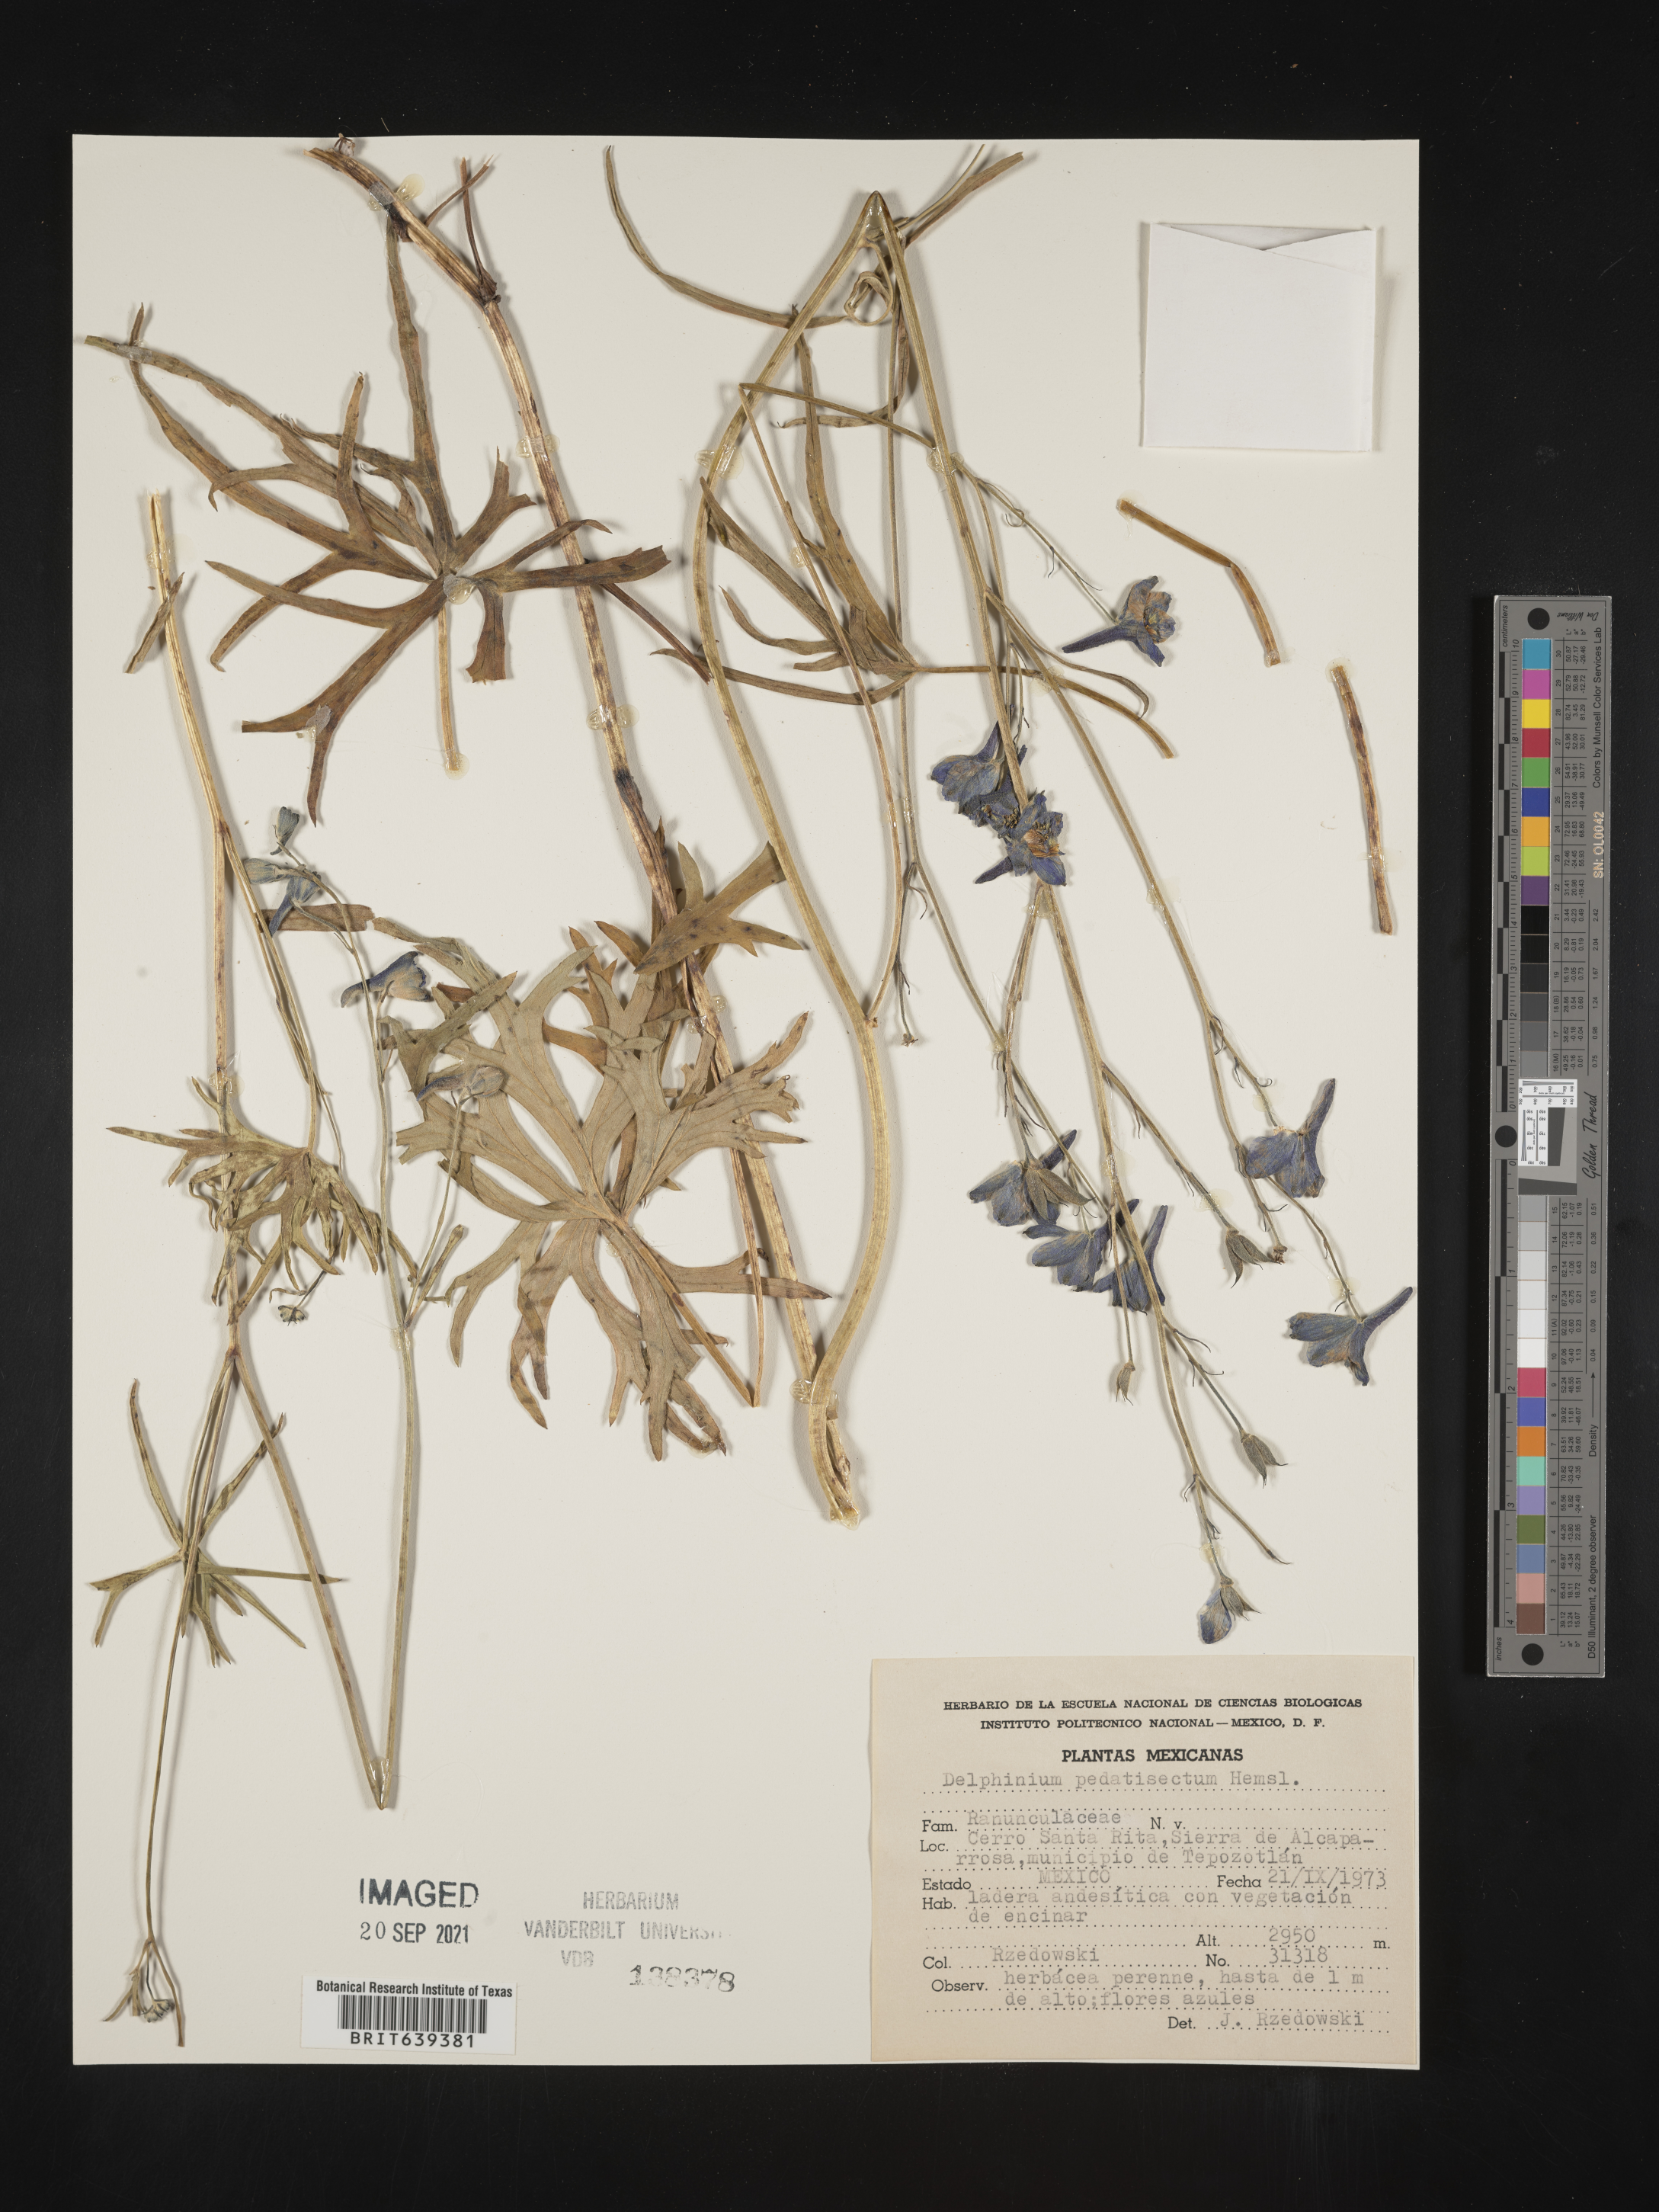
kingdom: Plantae
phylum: Tracheophyta
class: Magnoliopsida
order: Ranunculales
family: Ranunculaceae
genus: Delphinium
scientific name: Delphinium pedatisectum
